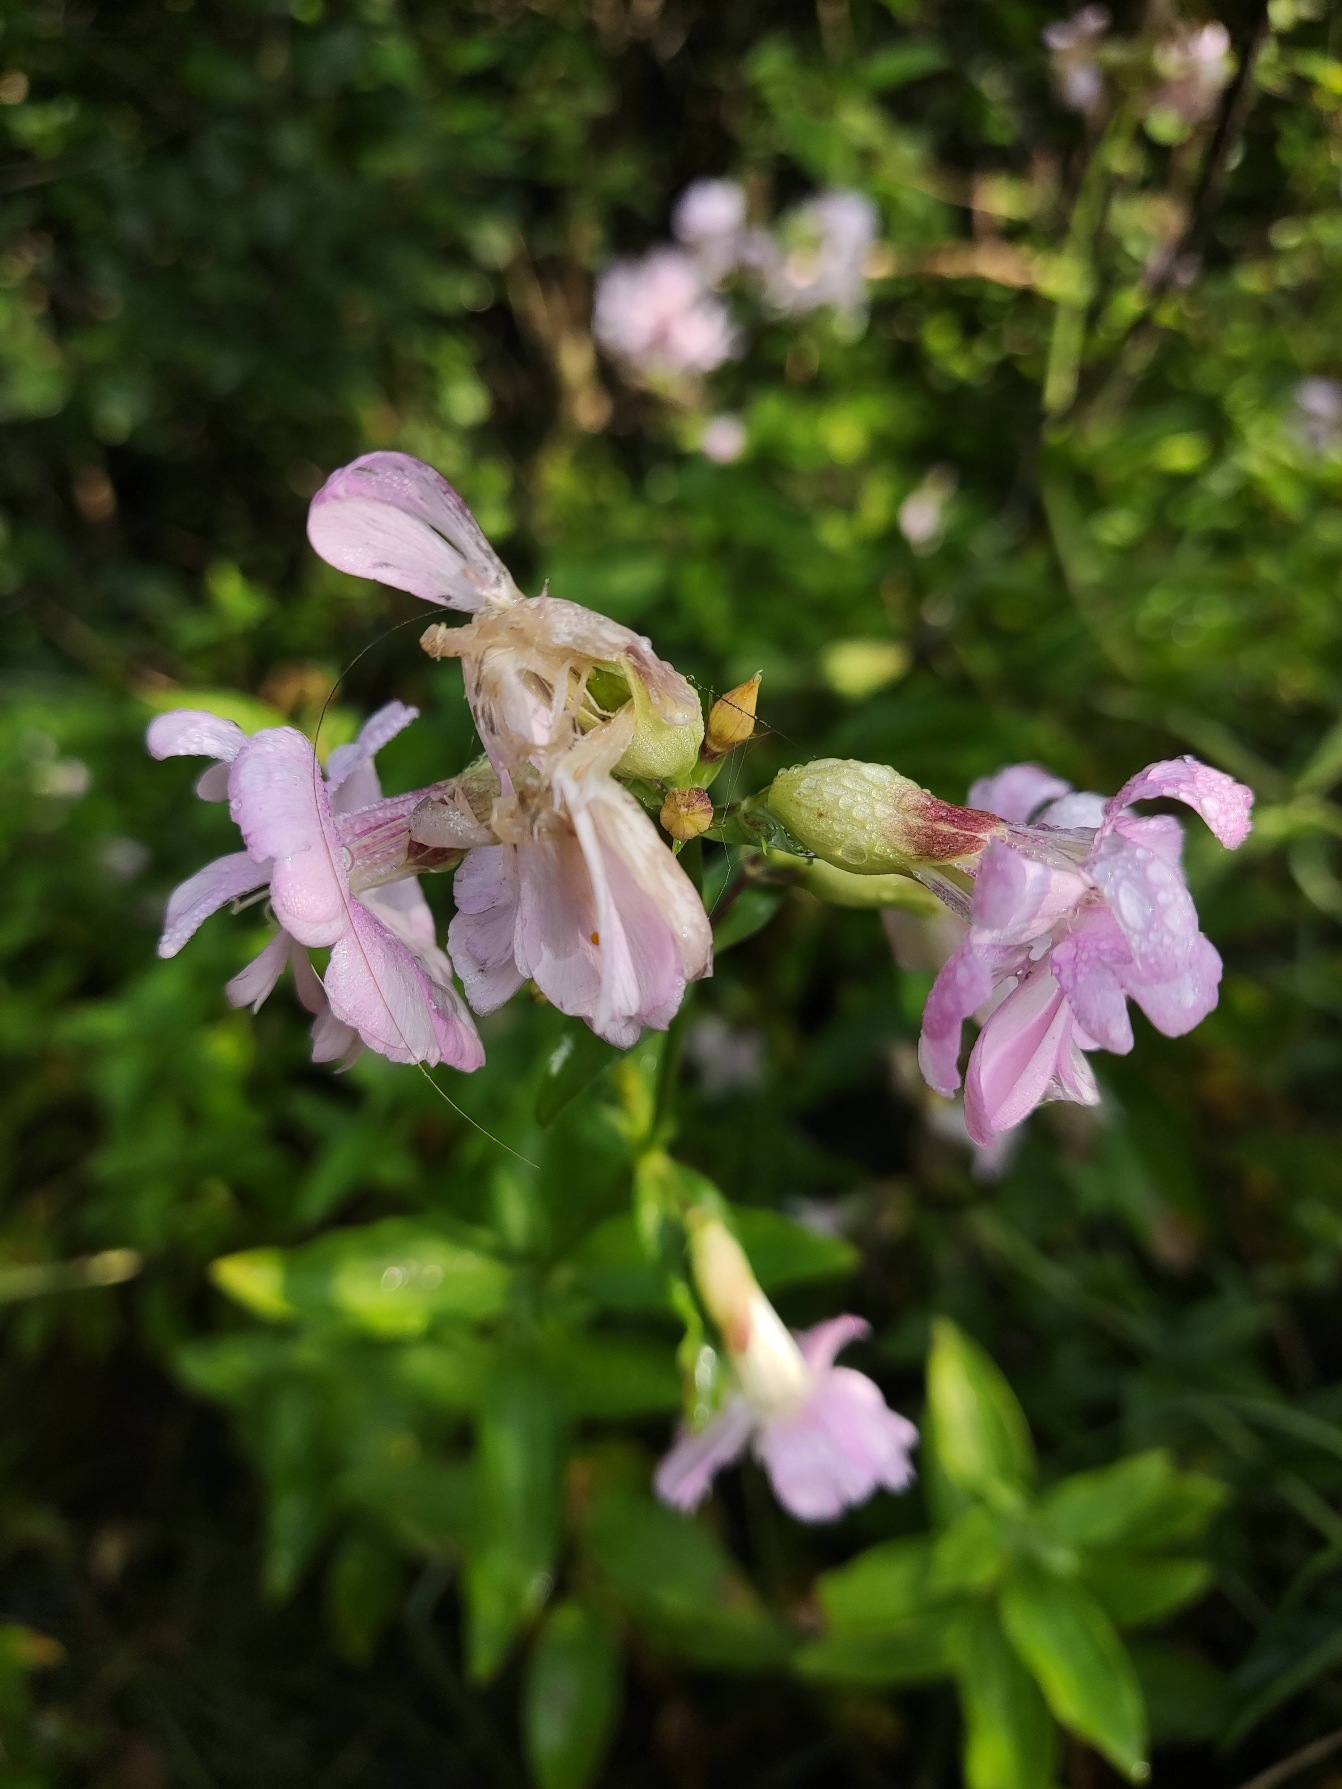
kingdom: Plantae
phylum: Tracheophyta
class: Magnoliopsida
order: Caryophyllales
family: Caryophyllaceae
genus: Saponaria
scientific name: Saponaria officinalis
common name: Sæbeurt
